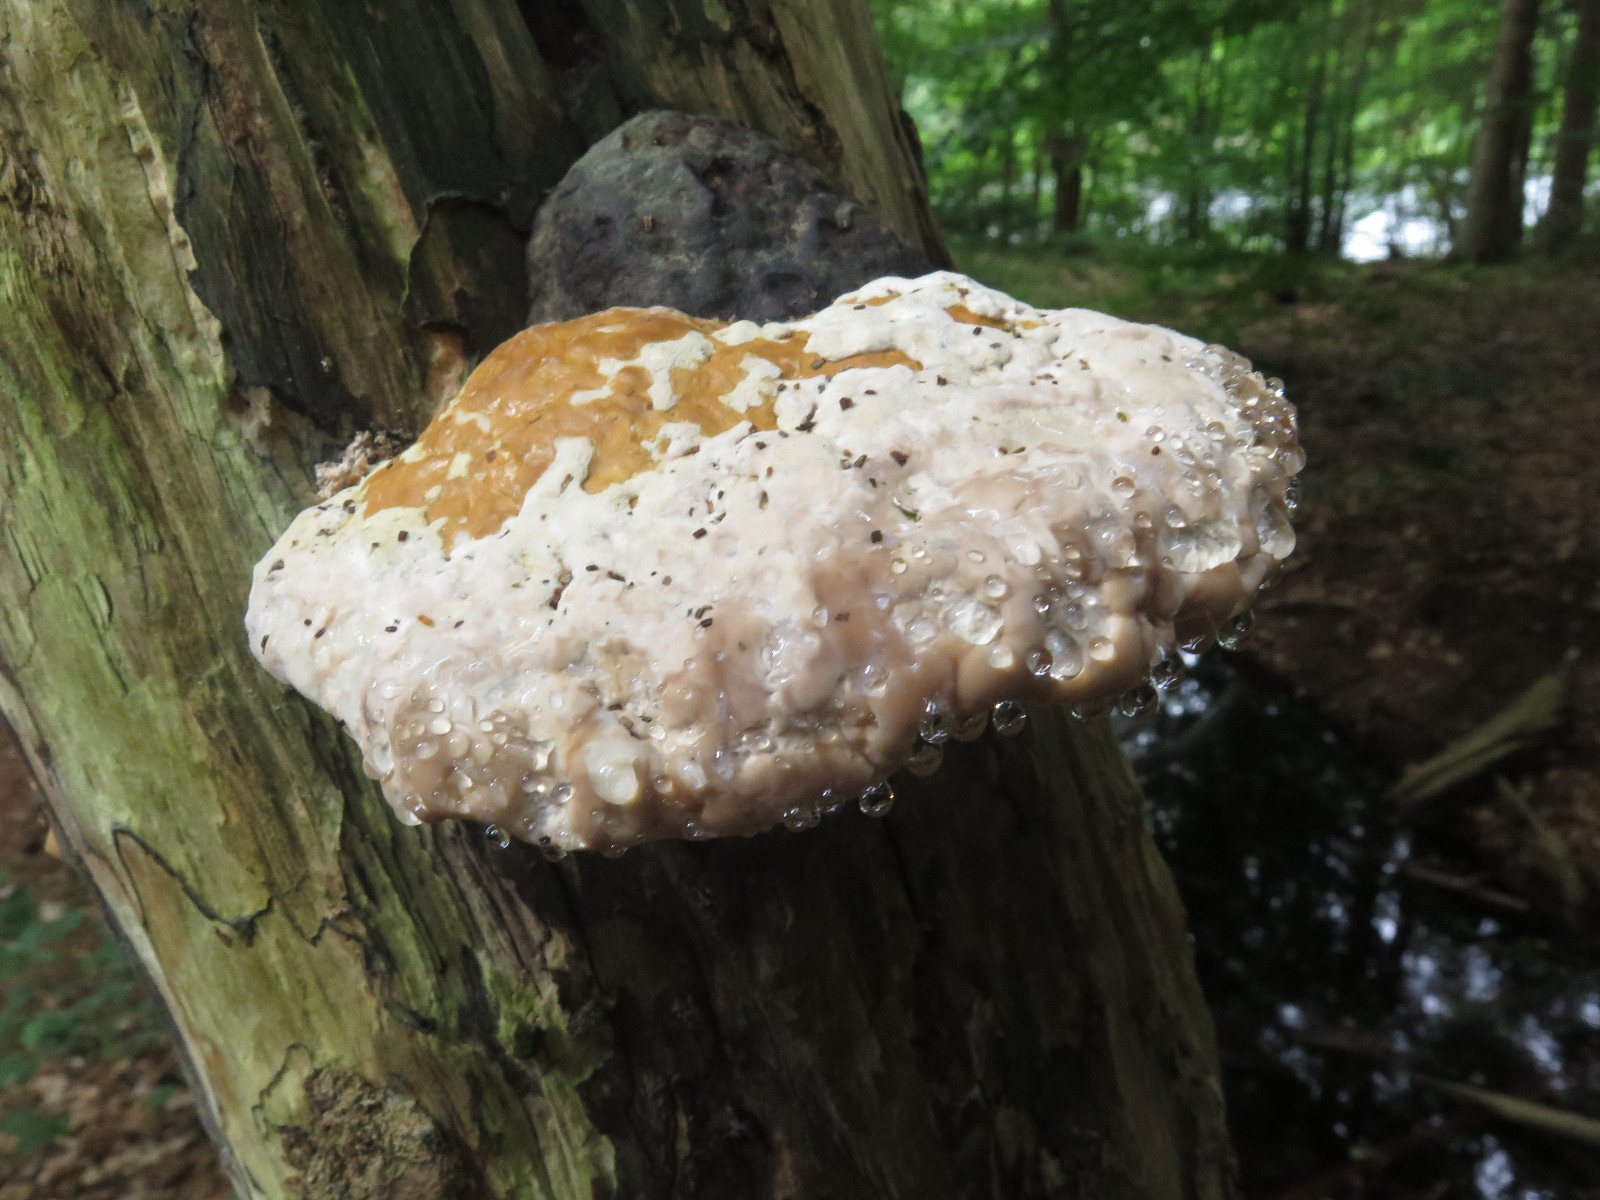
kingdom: Fungi
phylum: Basidiomycota
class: Agaricomycetes
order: Polyporales
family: Fomitopsidaceae
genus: Fomitopsis
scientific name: Fomitopsis pinicola
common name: randbæltet hovporesvamp
